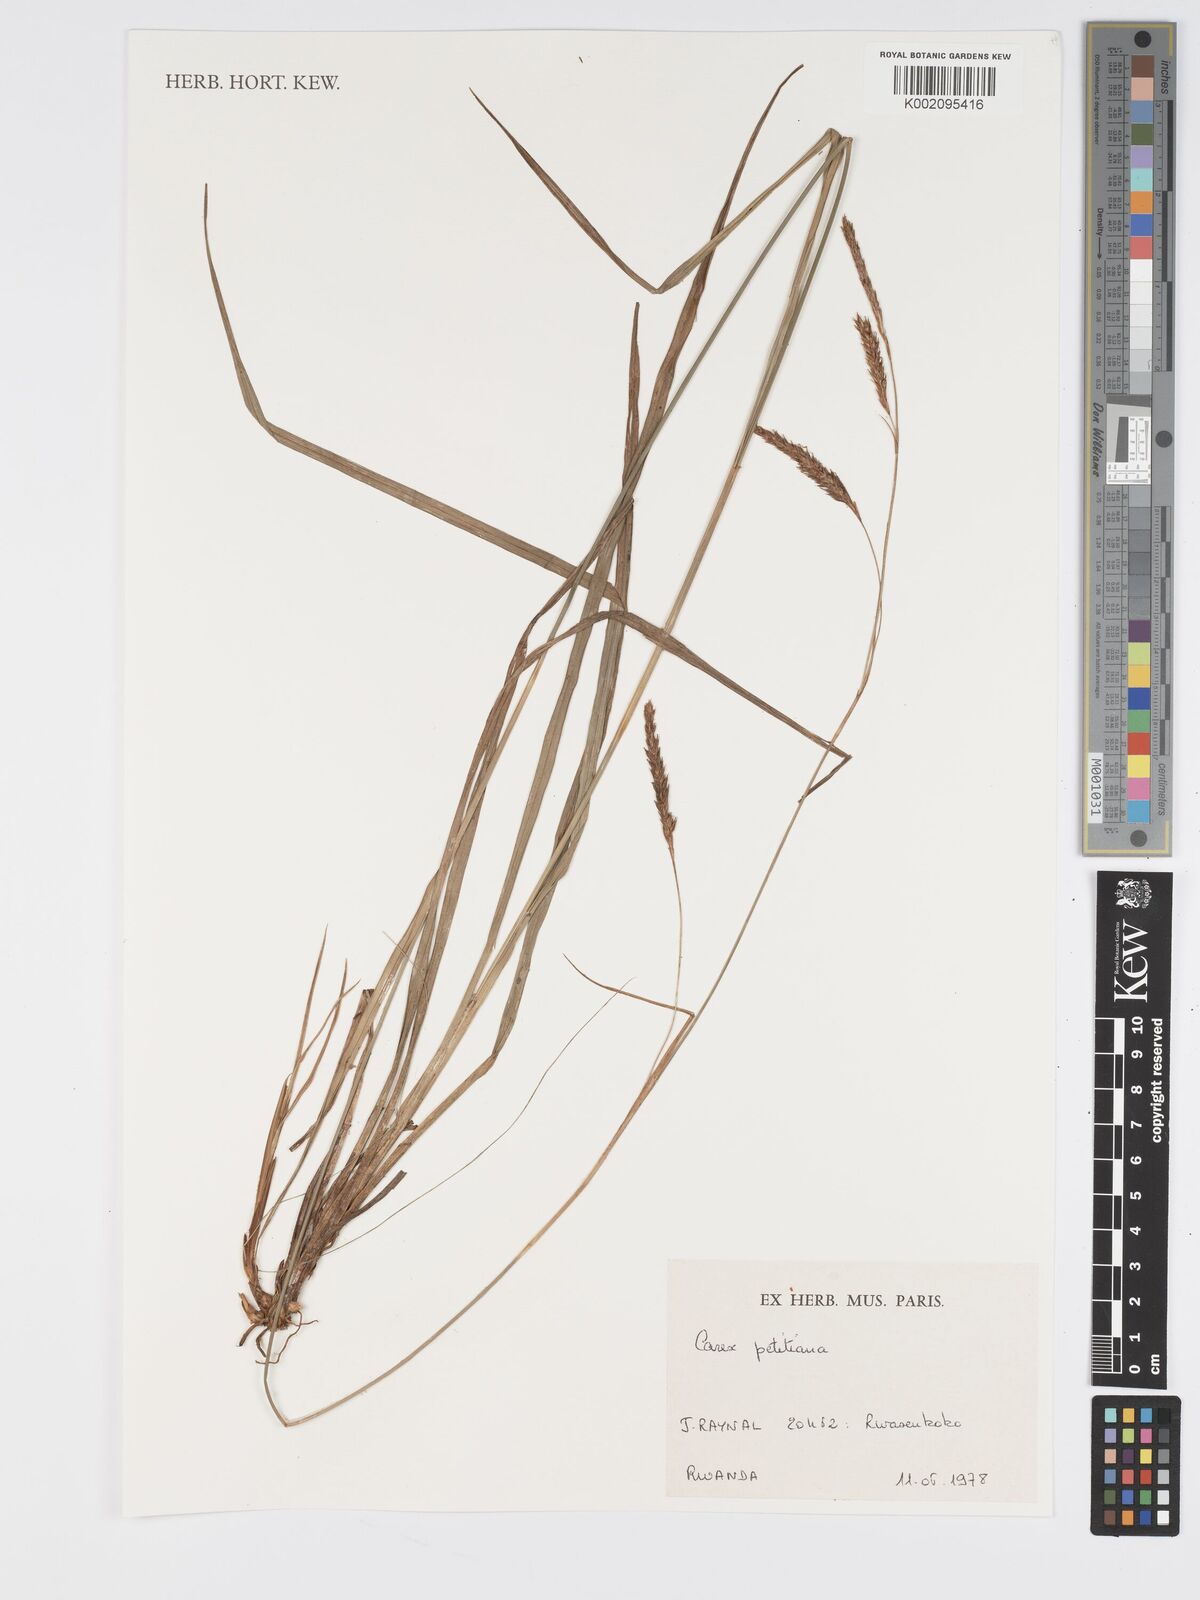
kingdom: Plantae
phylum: Tracheophyta
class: Liliopsida
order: Poales
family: Cyperaceae
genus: Carex
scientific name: Carex petitiana
